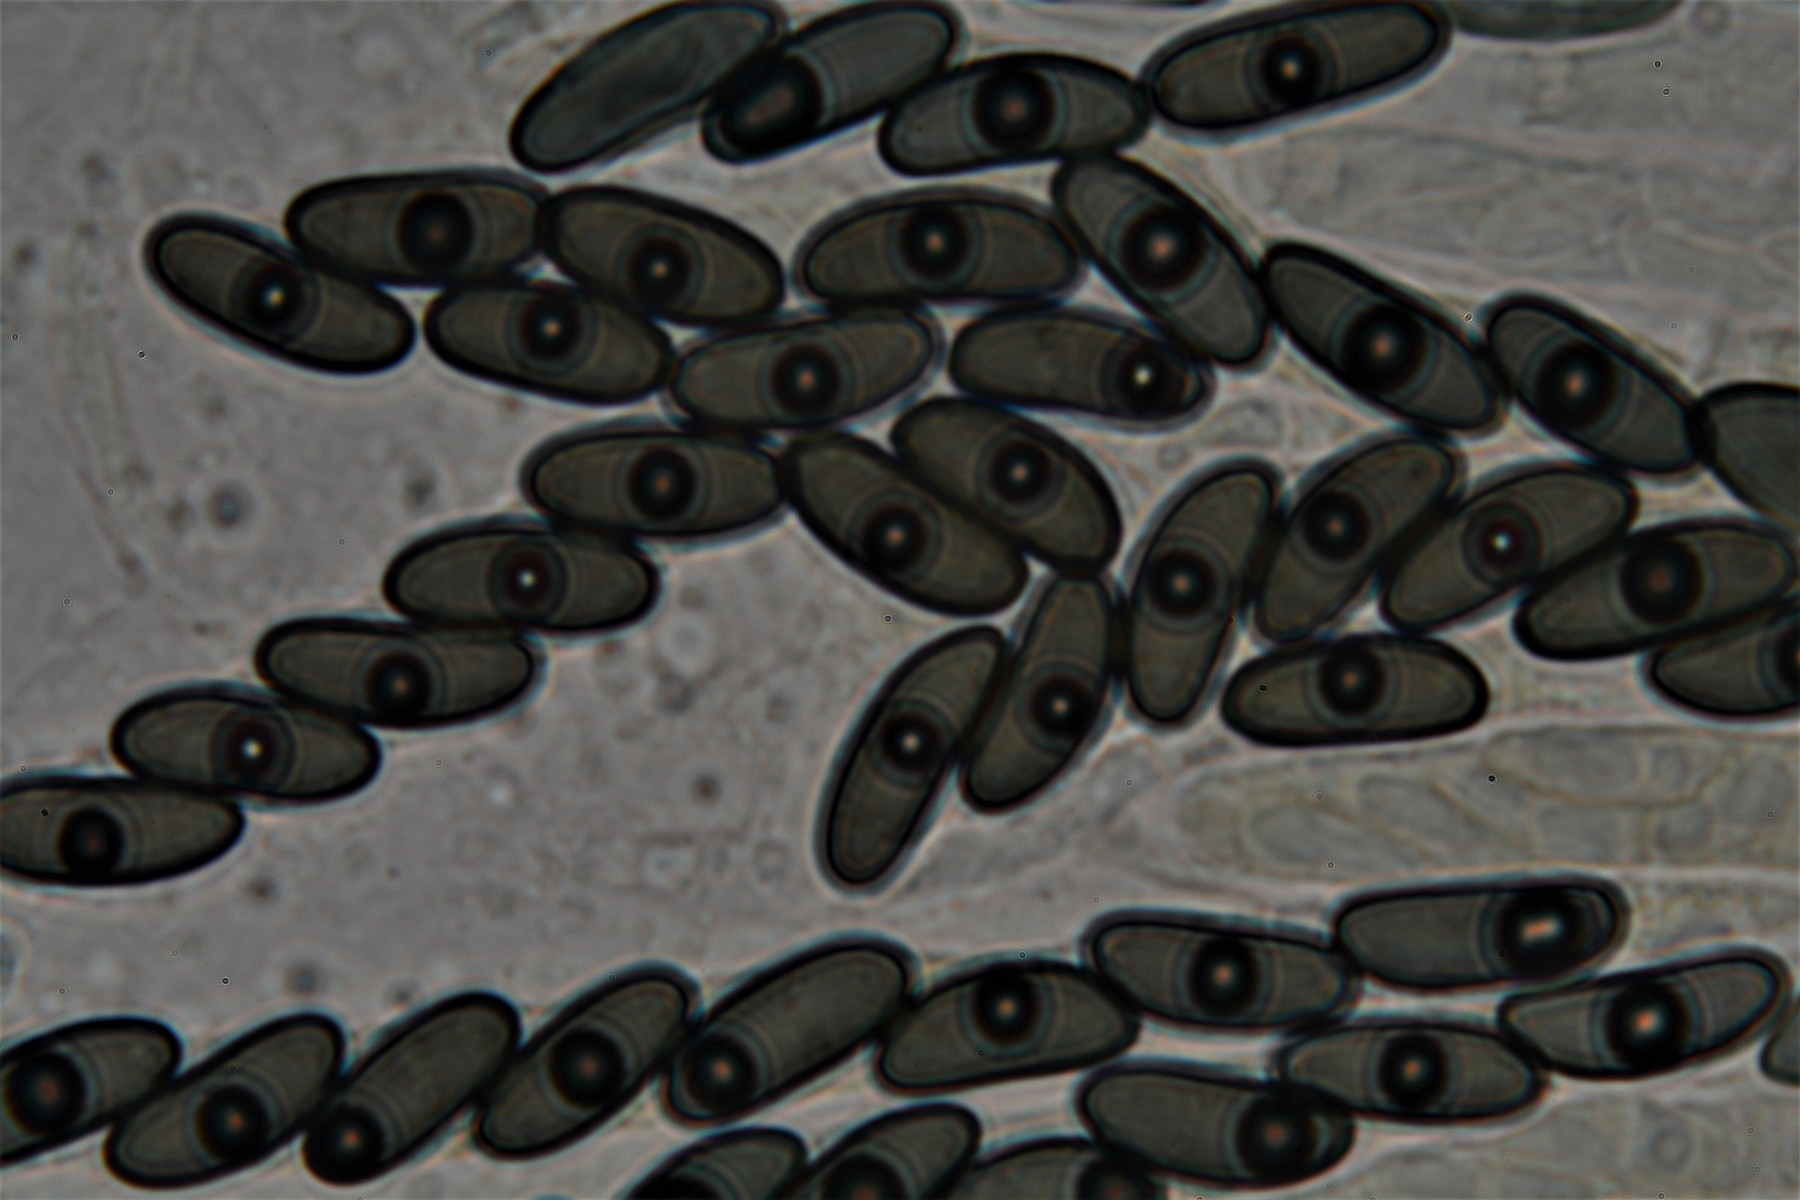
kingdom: Fungi
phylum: Ascomycota
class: Sordariomycetes
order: Xylariales
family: Xylariaceae
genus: Nemania
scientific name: Nemania serpens
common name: almindelig kuldyne
